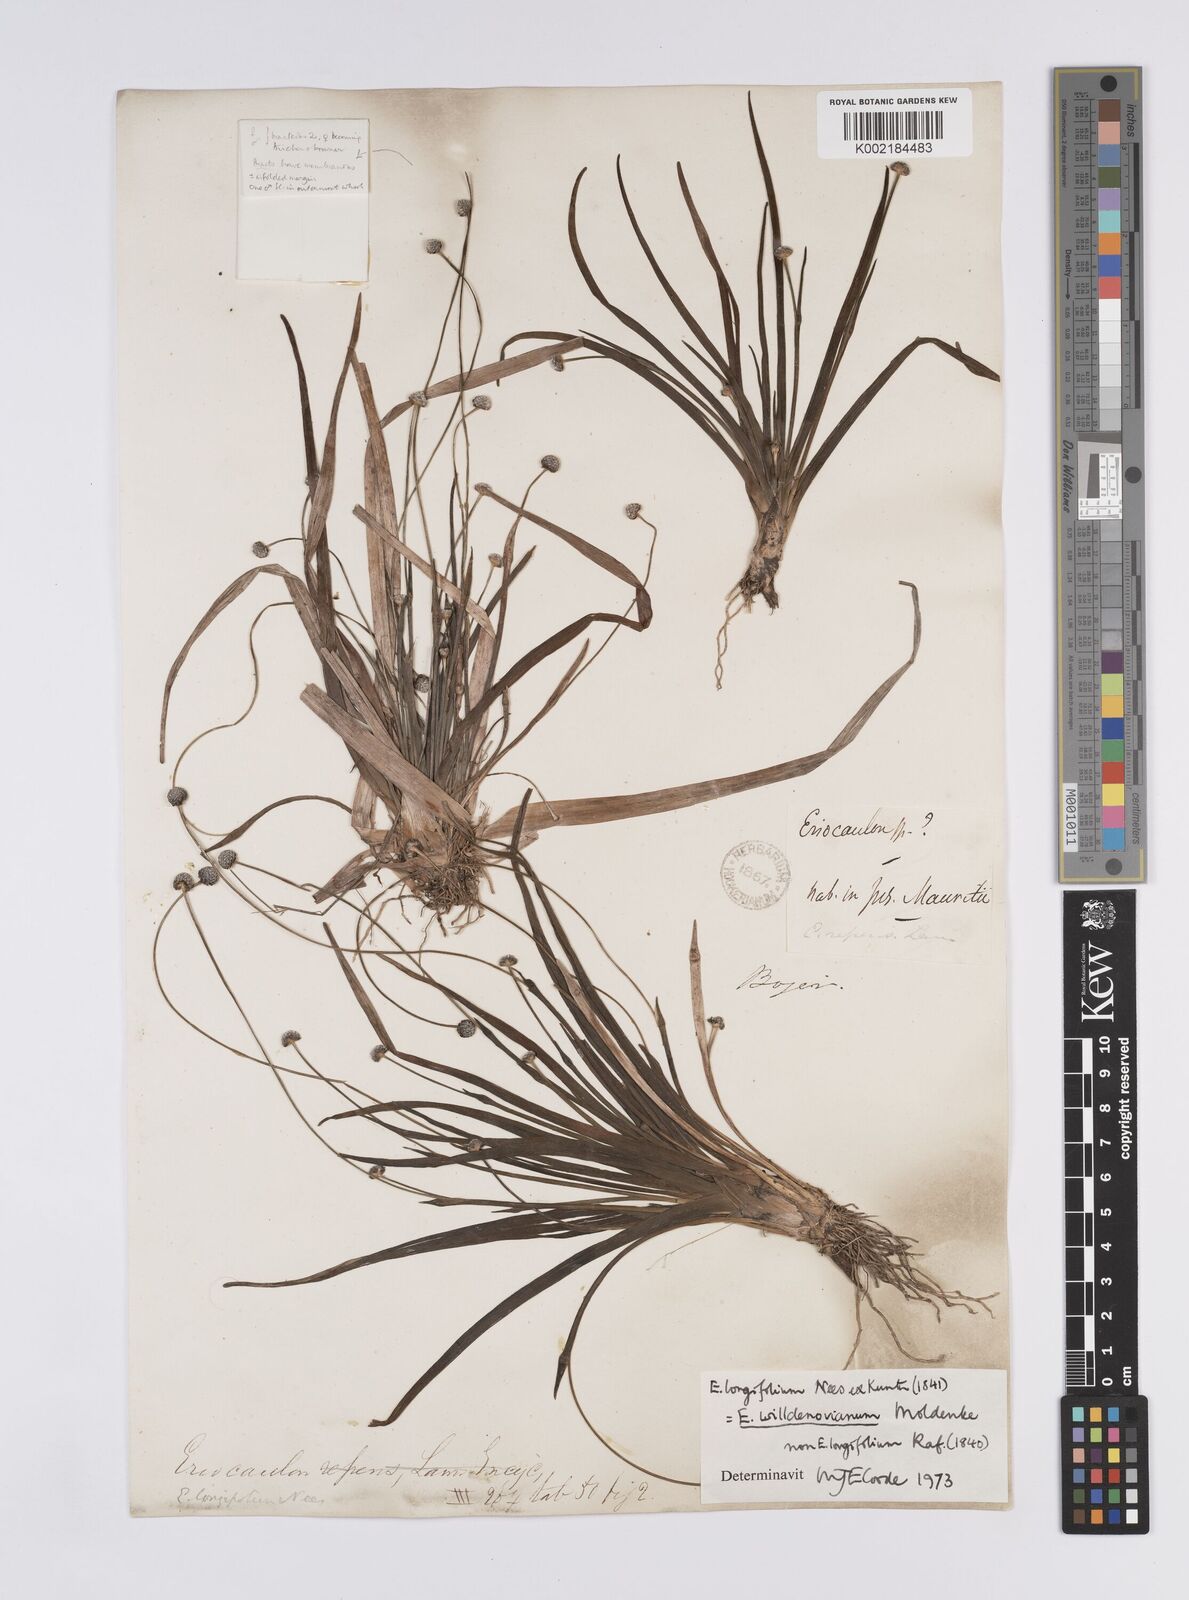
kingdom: Plantae
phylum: Tracheophyta
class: Liliopsida
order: Poales
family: Eriocaulaceae
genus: Eriocaulon
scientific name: Eriocaulon willdenovianum
